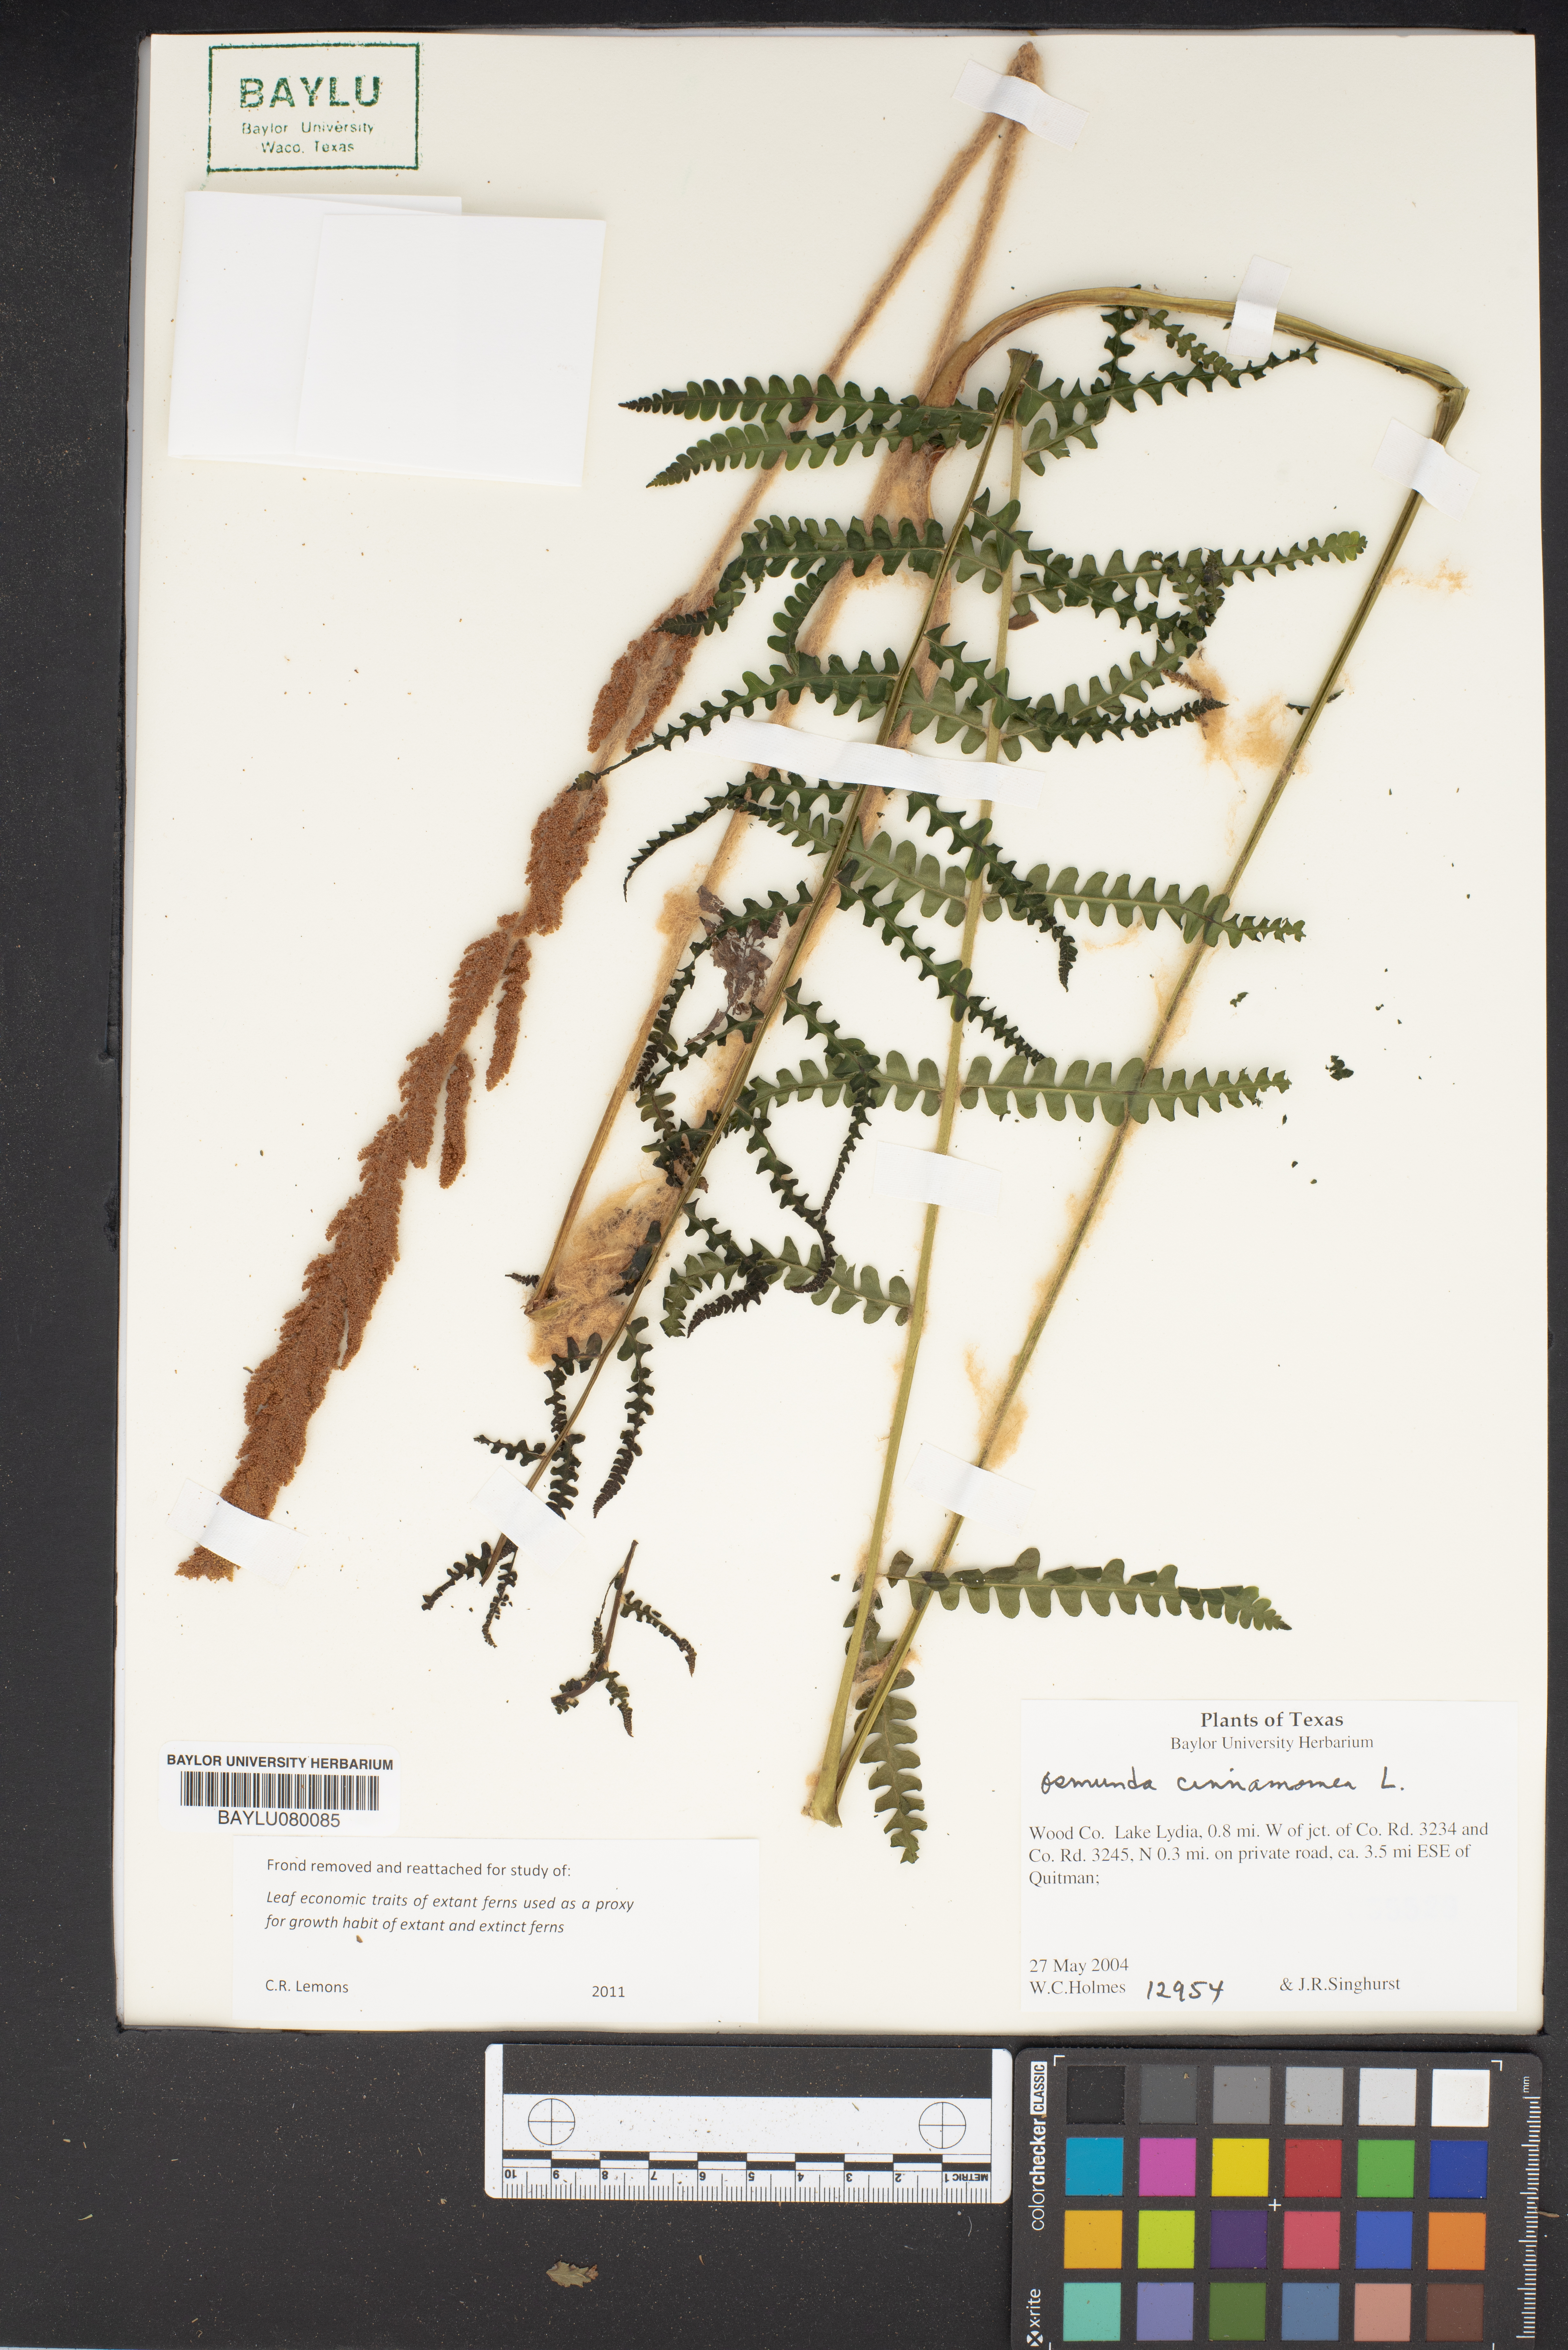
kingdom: Plantae
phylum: Tracheophyta
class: Polypodiopsida
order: Osmundales
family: Osmundaceae
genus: Osmundastrum
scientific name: Osmundastrum cinnamomeum
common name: Cinnamon fern
